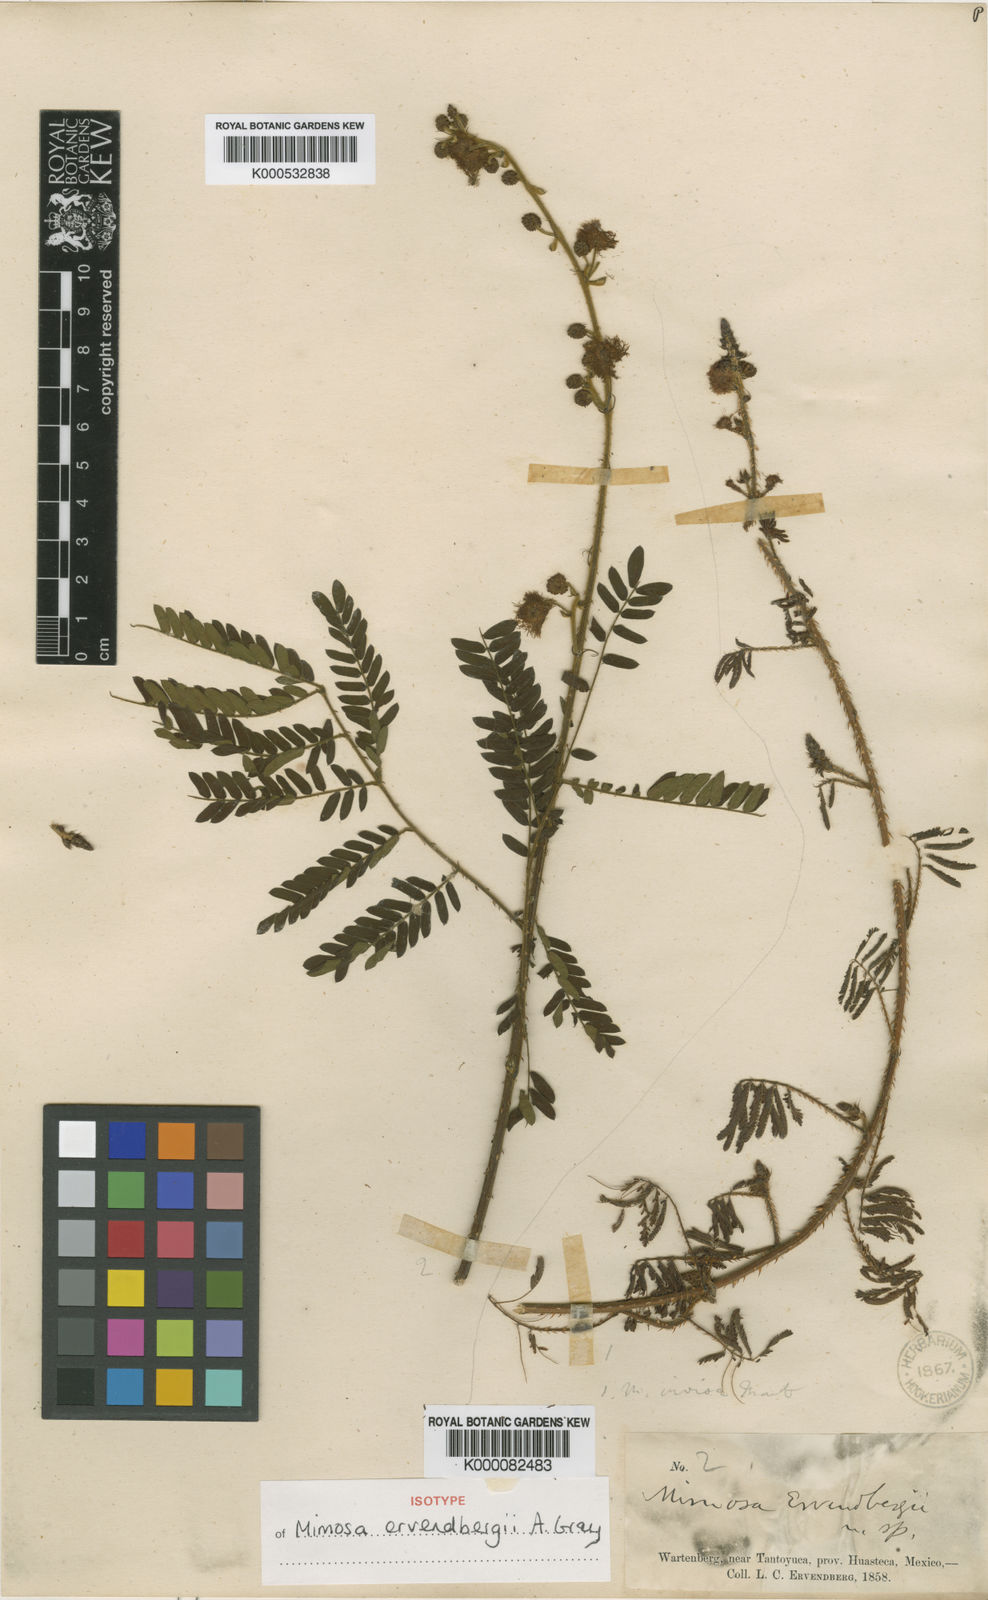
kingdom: Plantae
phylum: Tracheophyta
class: Magnoliopsida
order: Fabales
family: Fabaceae
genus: Mimosa
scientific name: Mimosa ervendbergii
